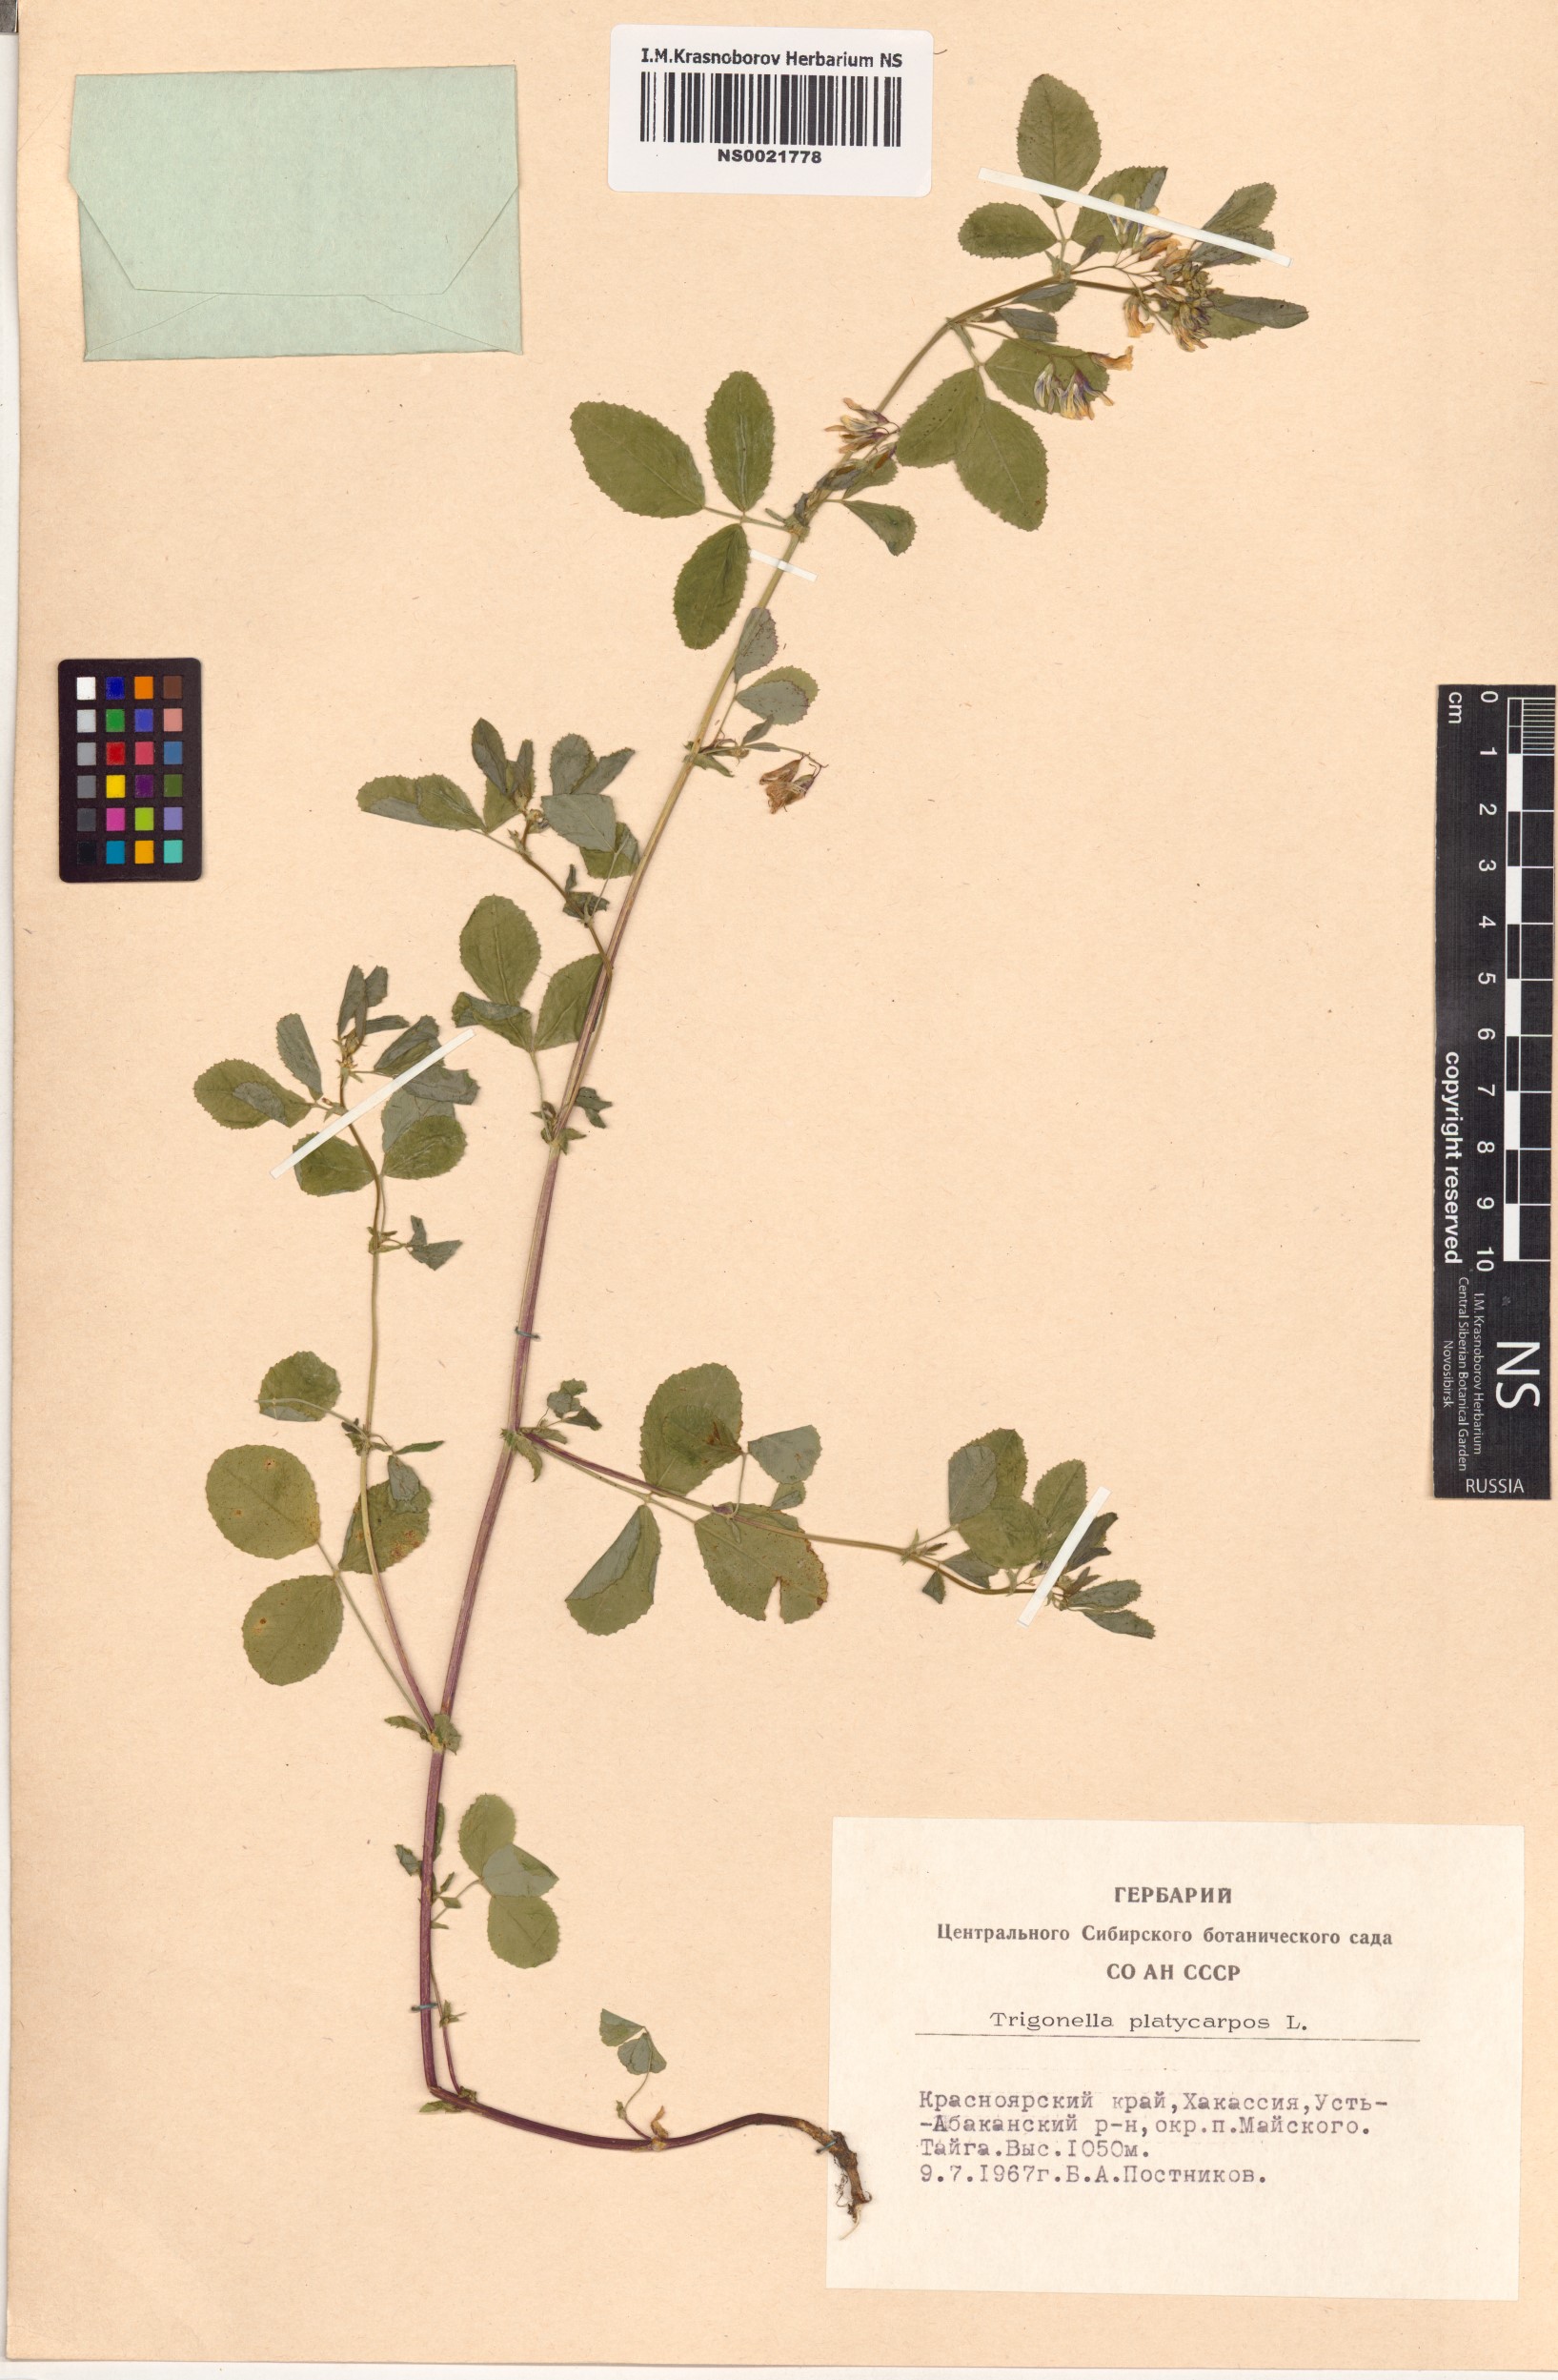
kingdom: Plantae
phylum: Tracheophyta
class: Magnoliopsida
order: Fabales
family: Fabaceae
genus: Medicago
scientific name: Medicago platycarpos
